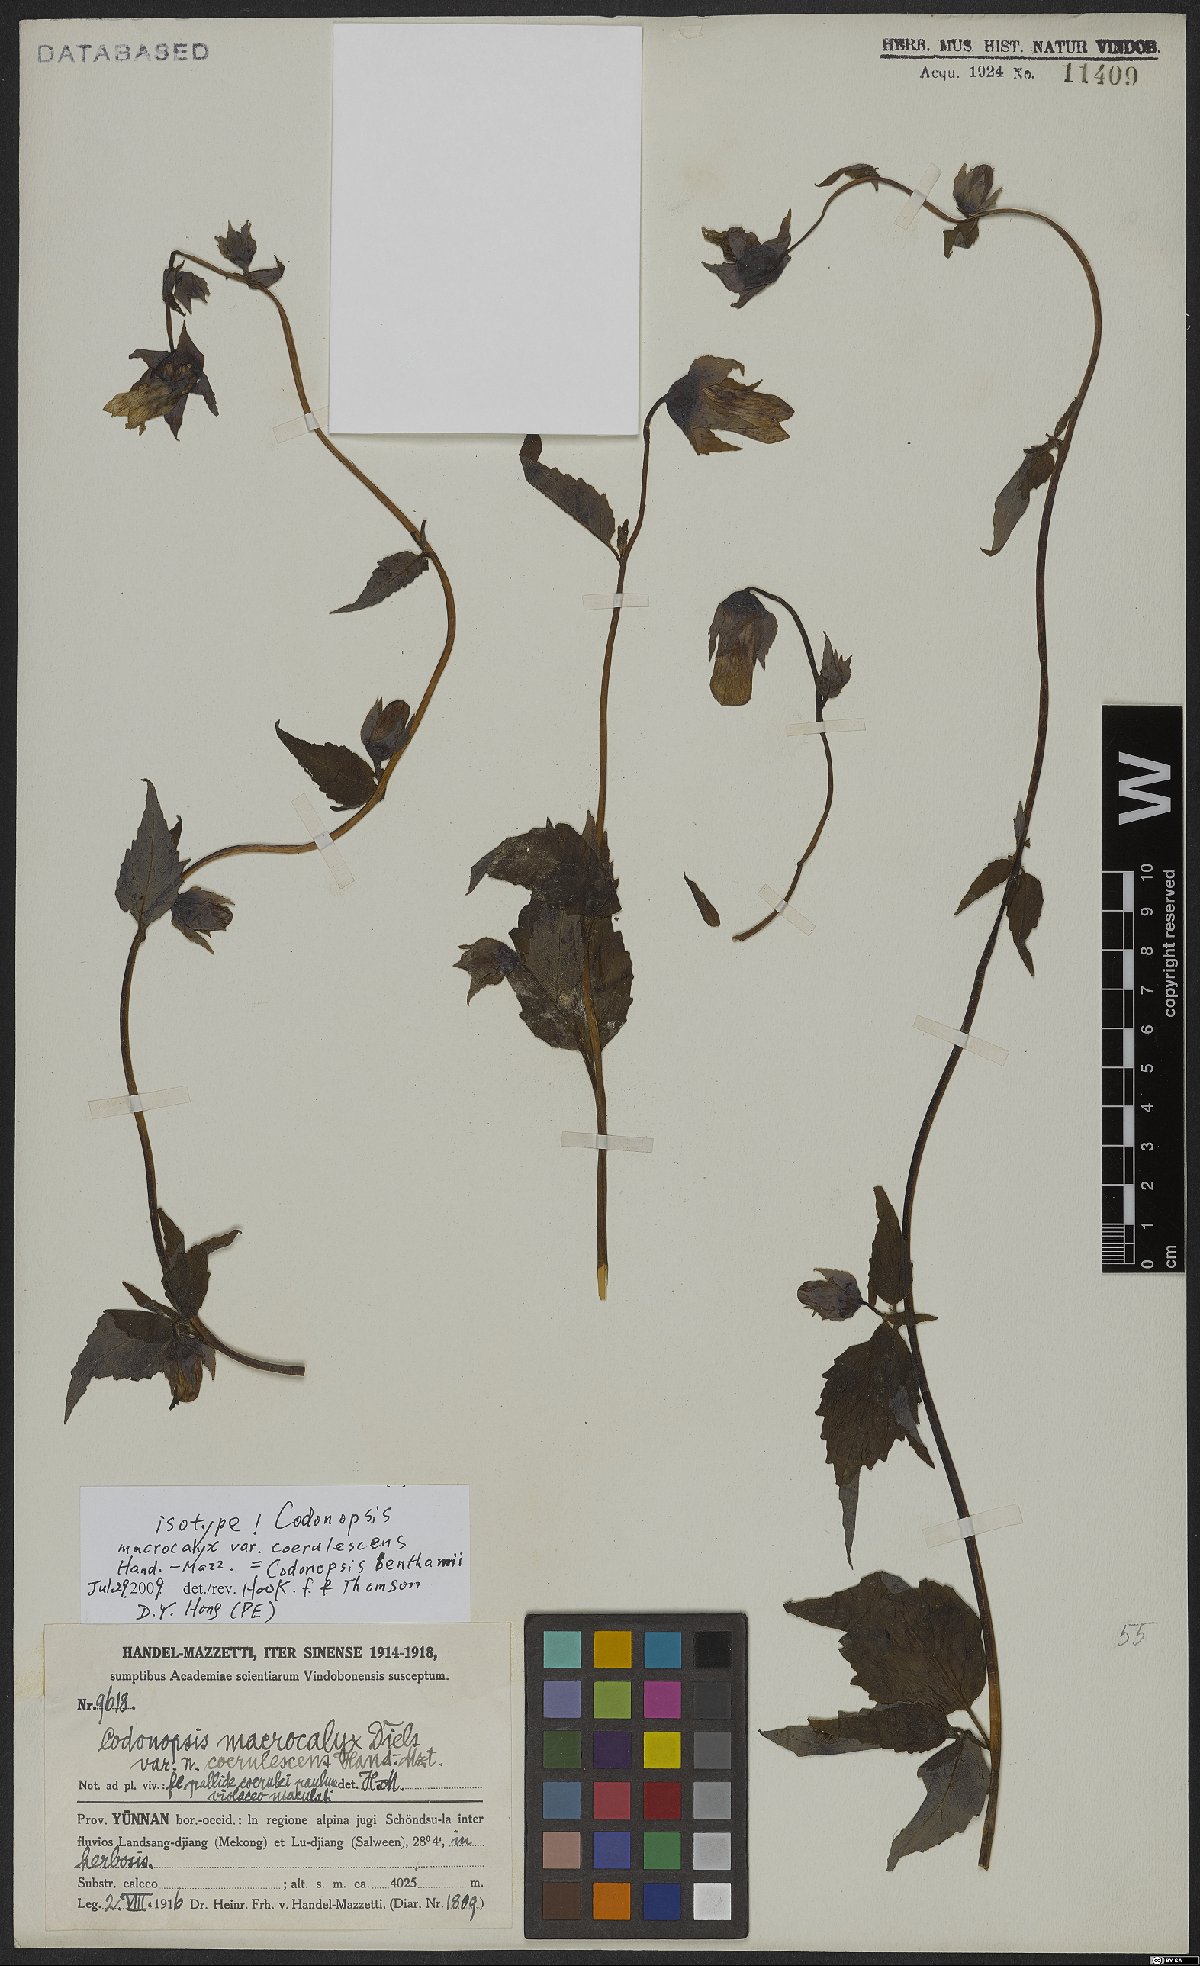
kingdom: Plantae
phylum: Tracheophyta
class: Magnoliopsida
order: Asterales
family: Campanulaceae
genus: Codonopsis
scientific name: Codonopsis benthamii
